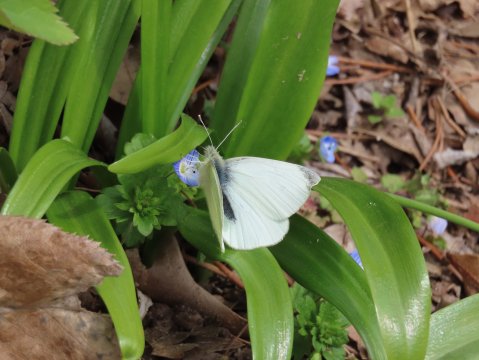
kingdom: Animalia
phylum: Arthropoda
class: Insecta
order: Lepidoptera
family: Pieridae
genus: Pieris
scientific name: Pieris rapae
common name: Cabbage White
